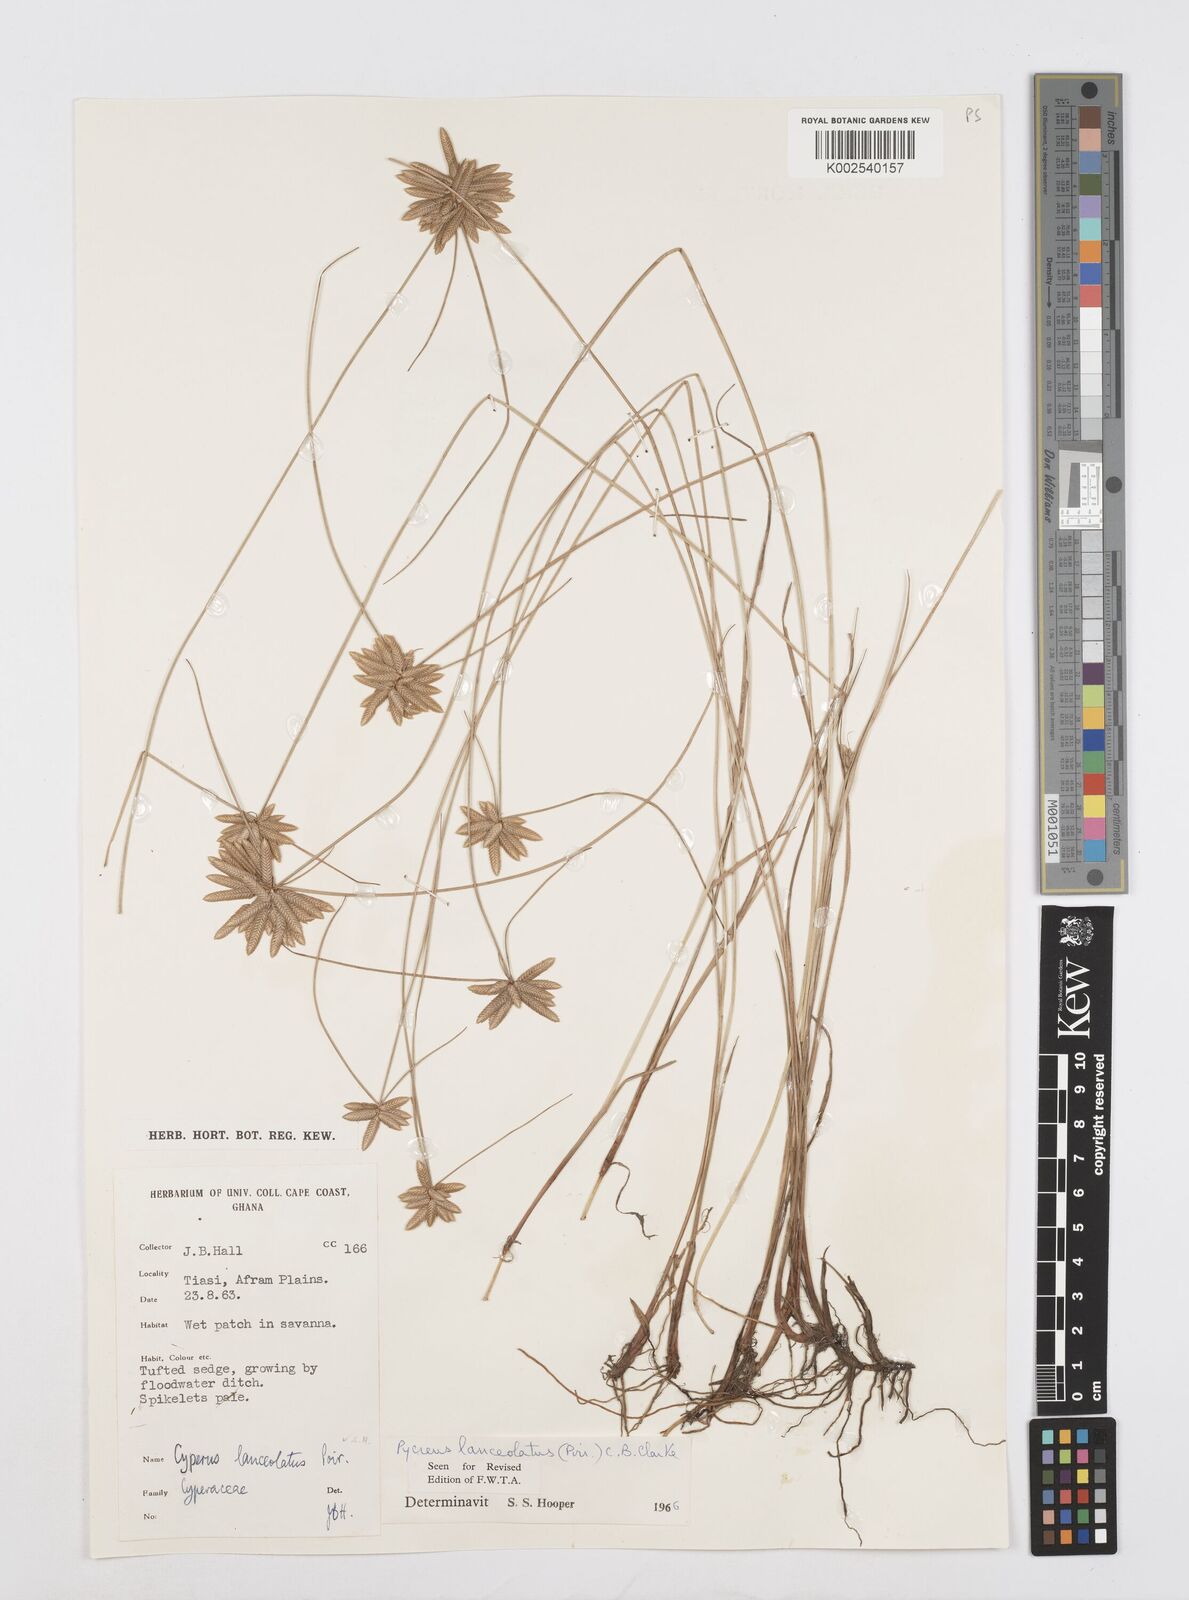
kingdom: Plantae
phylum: Tracheophyta
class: Liliopsida
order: Poales
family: Cyperaceae
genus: Cyperus
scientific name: Cyperus
